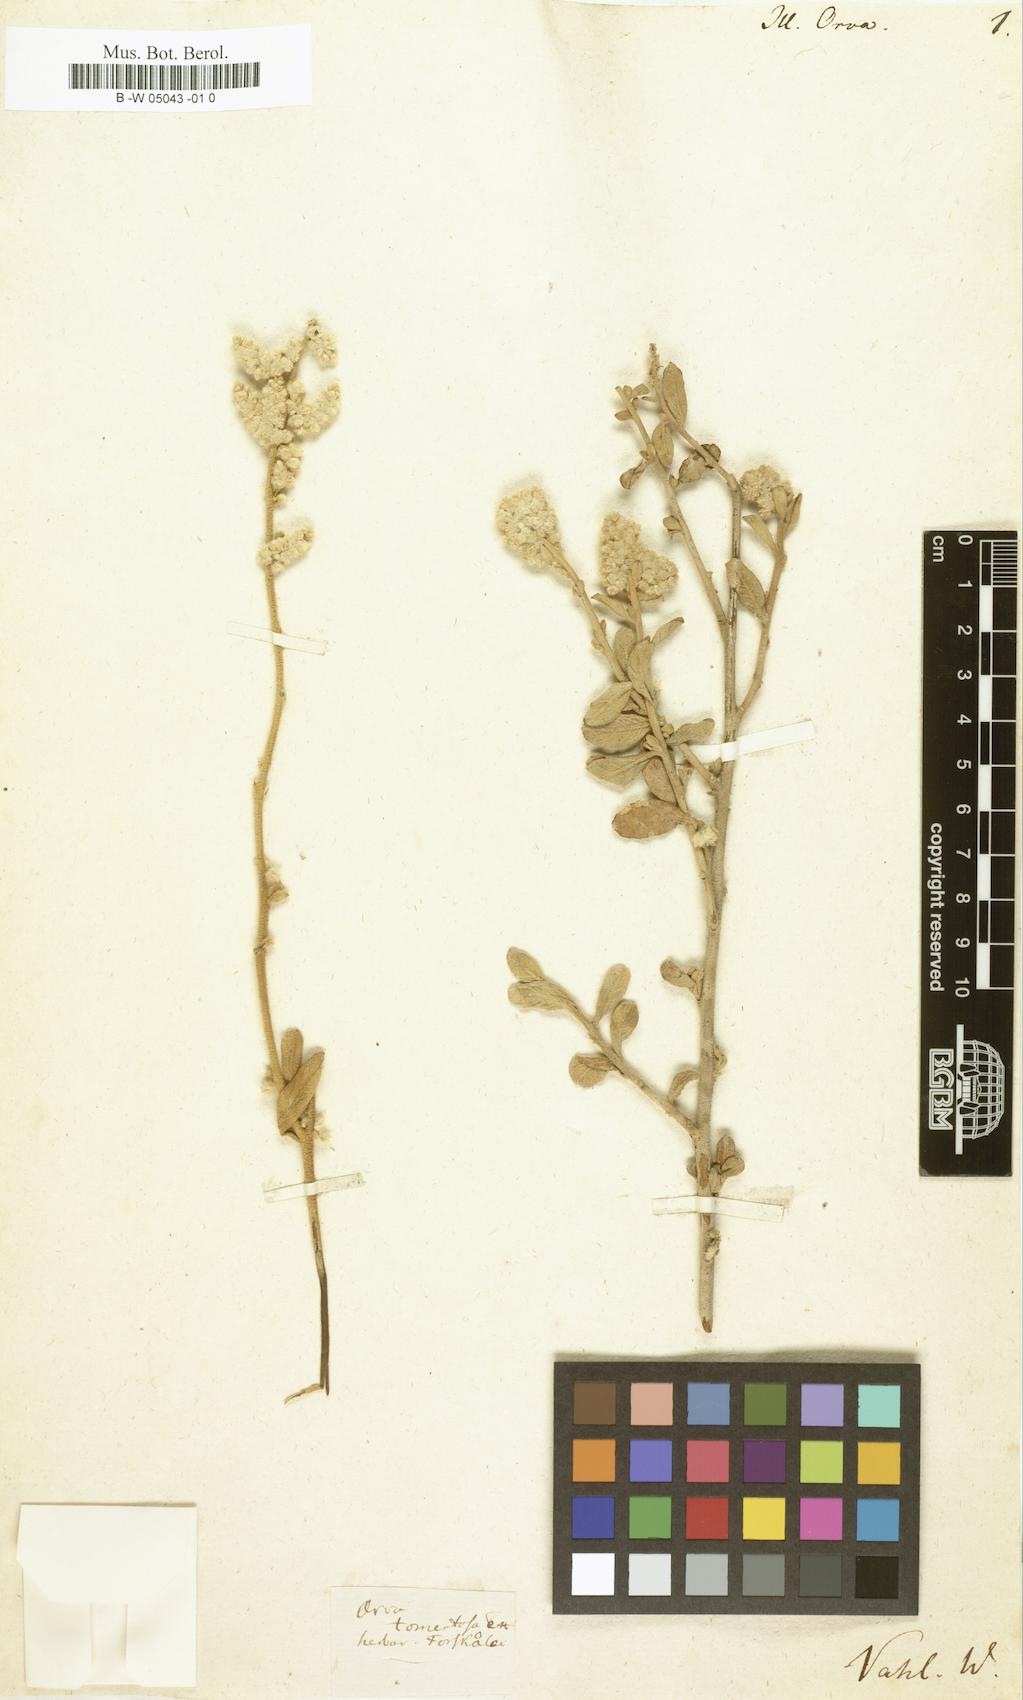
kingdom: Plantae
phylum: Tracheophyta
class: Magnoliopsida
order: Caryophyllales
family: Caryophyllaceae
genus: Illecebrum
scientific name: Illecebrum orva
